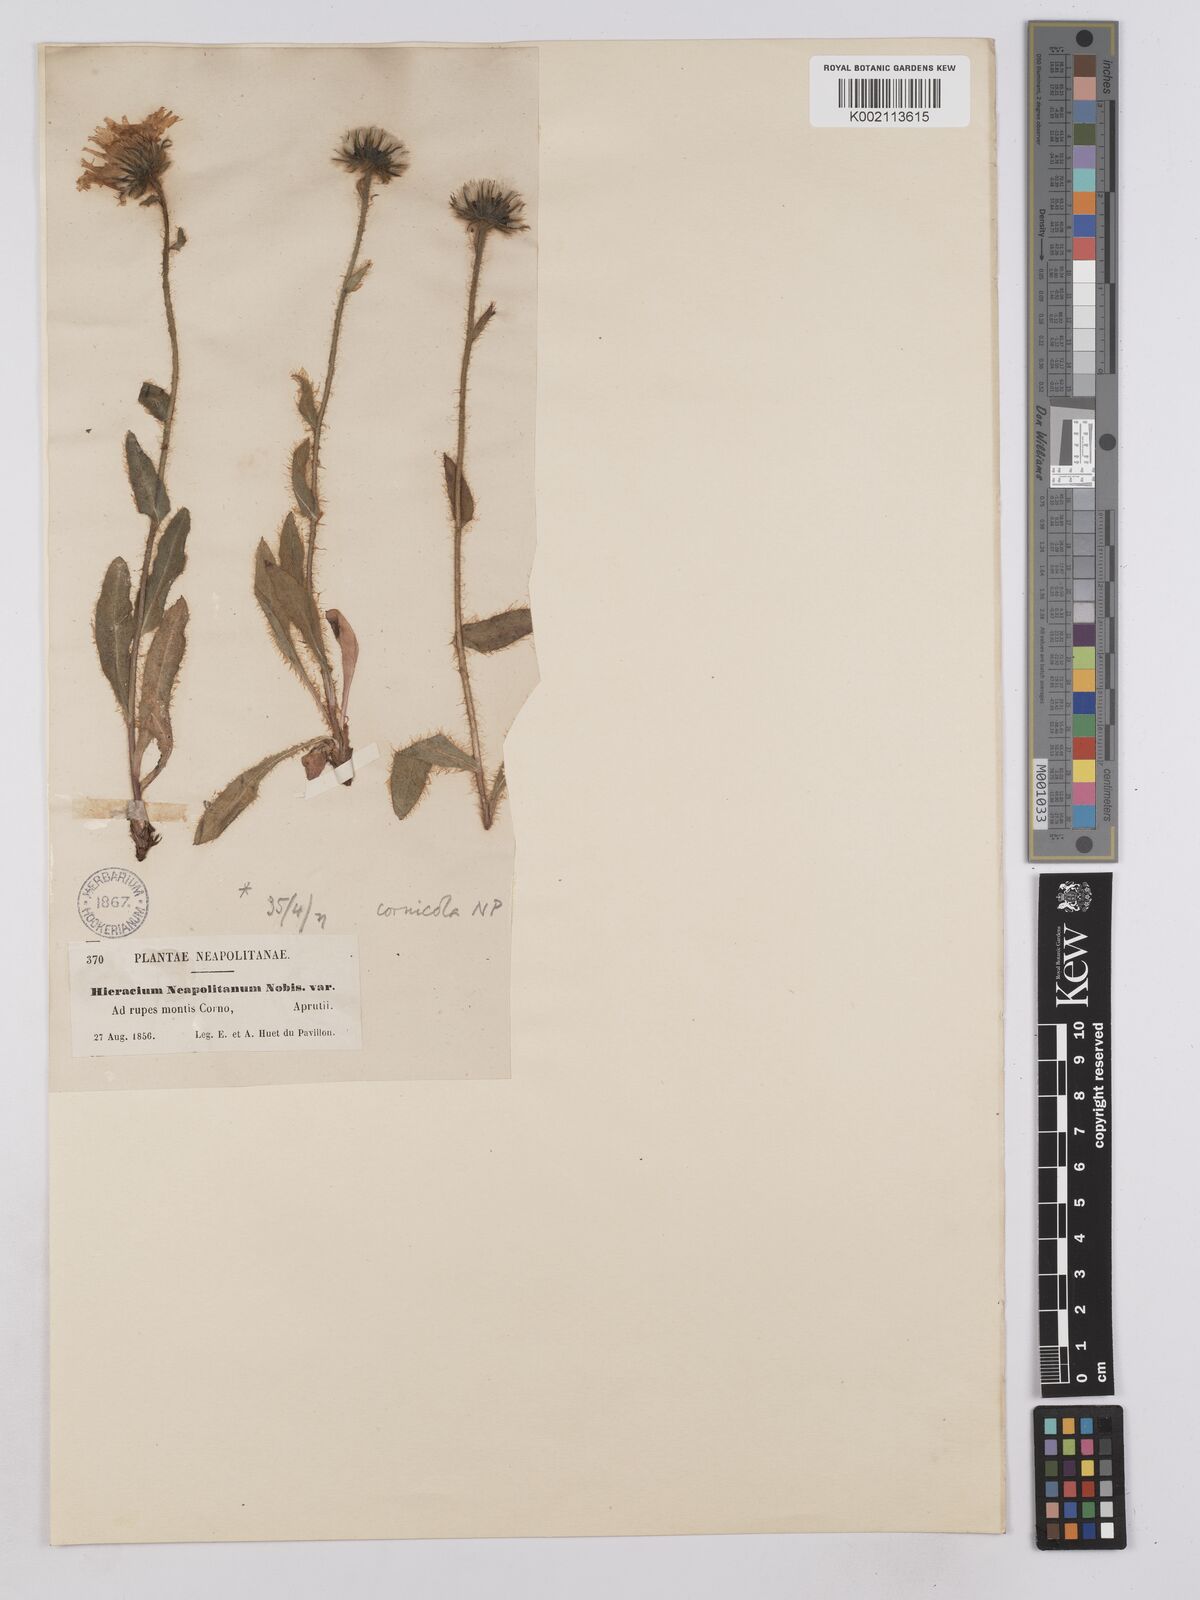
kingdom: Plantae
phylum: Tracheophyta
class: Magnoliopsida
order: Asterales
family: Asteraceae
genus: Hieracium
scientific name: Hieracium villosum
